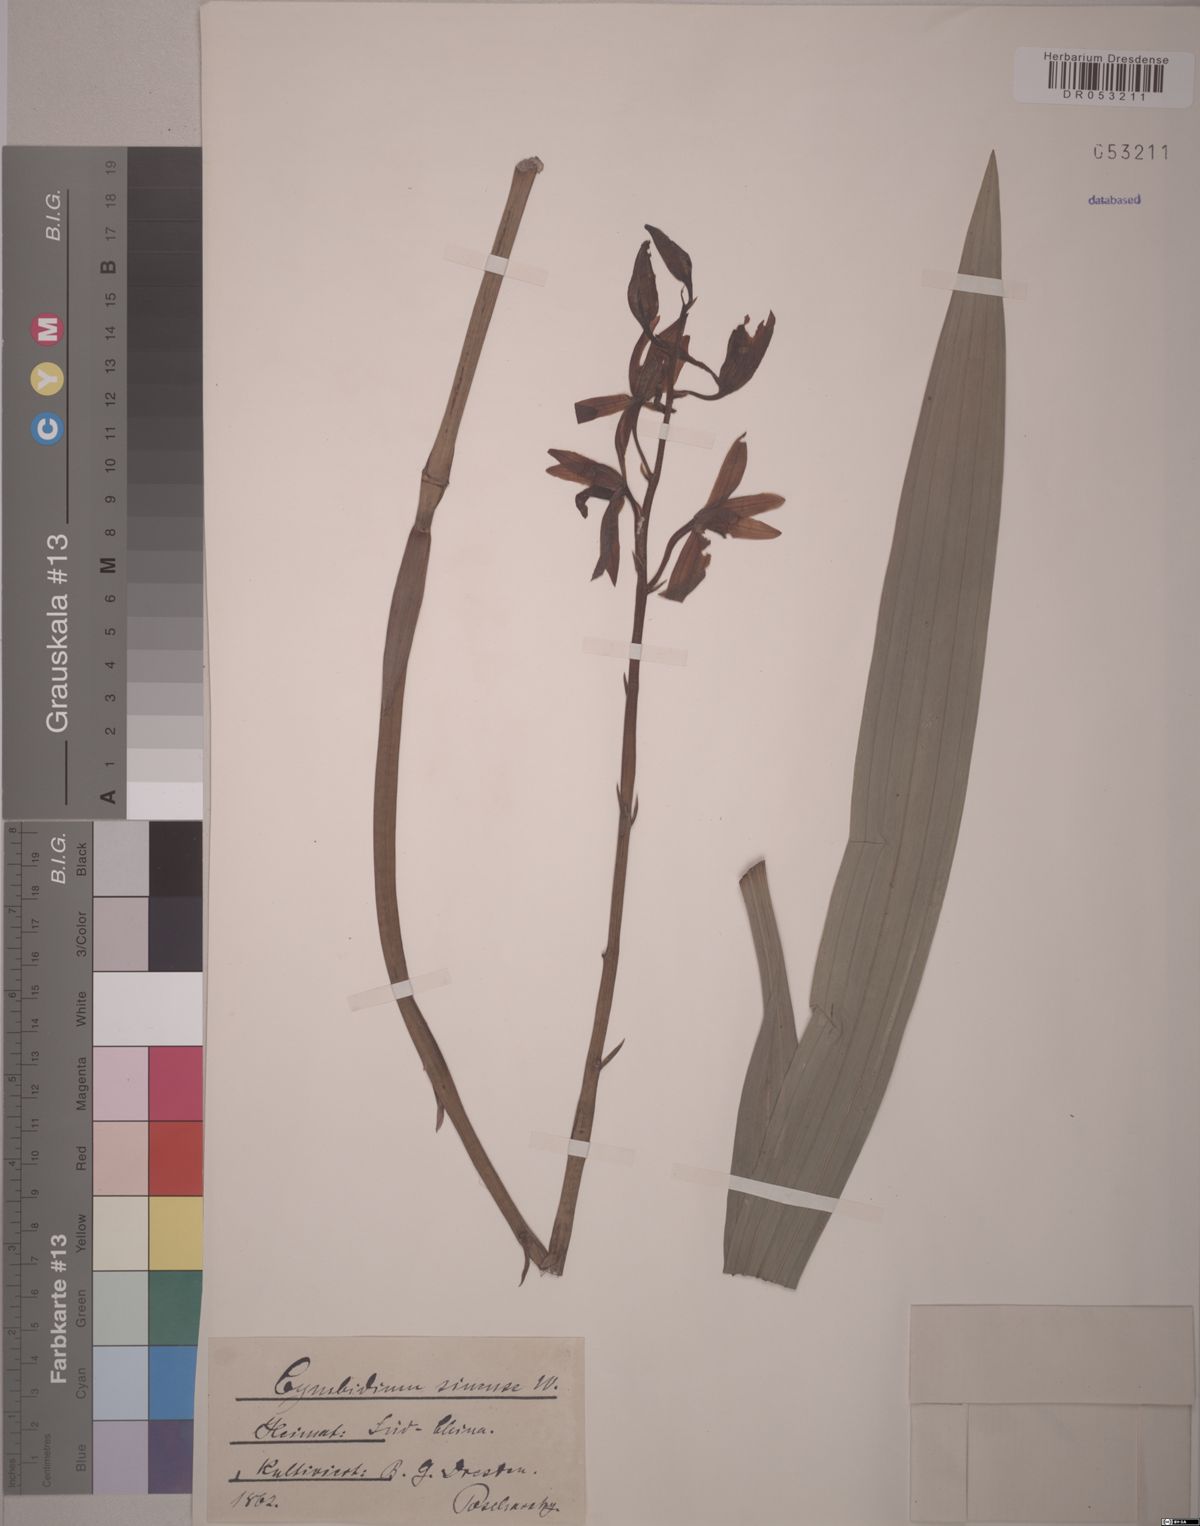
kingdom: Plantae
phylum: Tracheophyta
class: Liliopsida
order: Asparagales
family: Orchidaceae
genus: Cymbidium
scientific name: Cymbidium sinense
